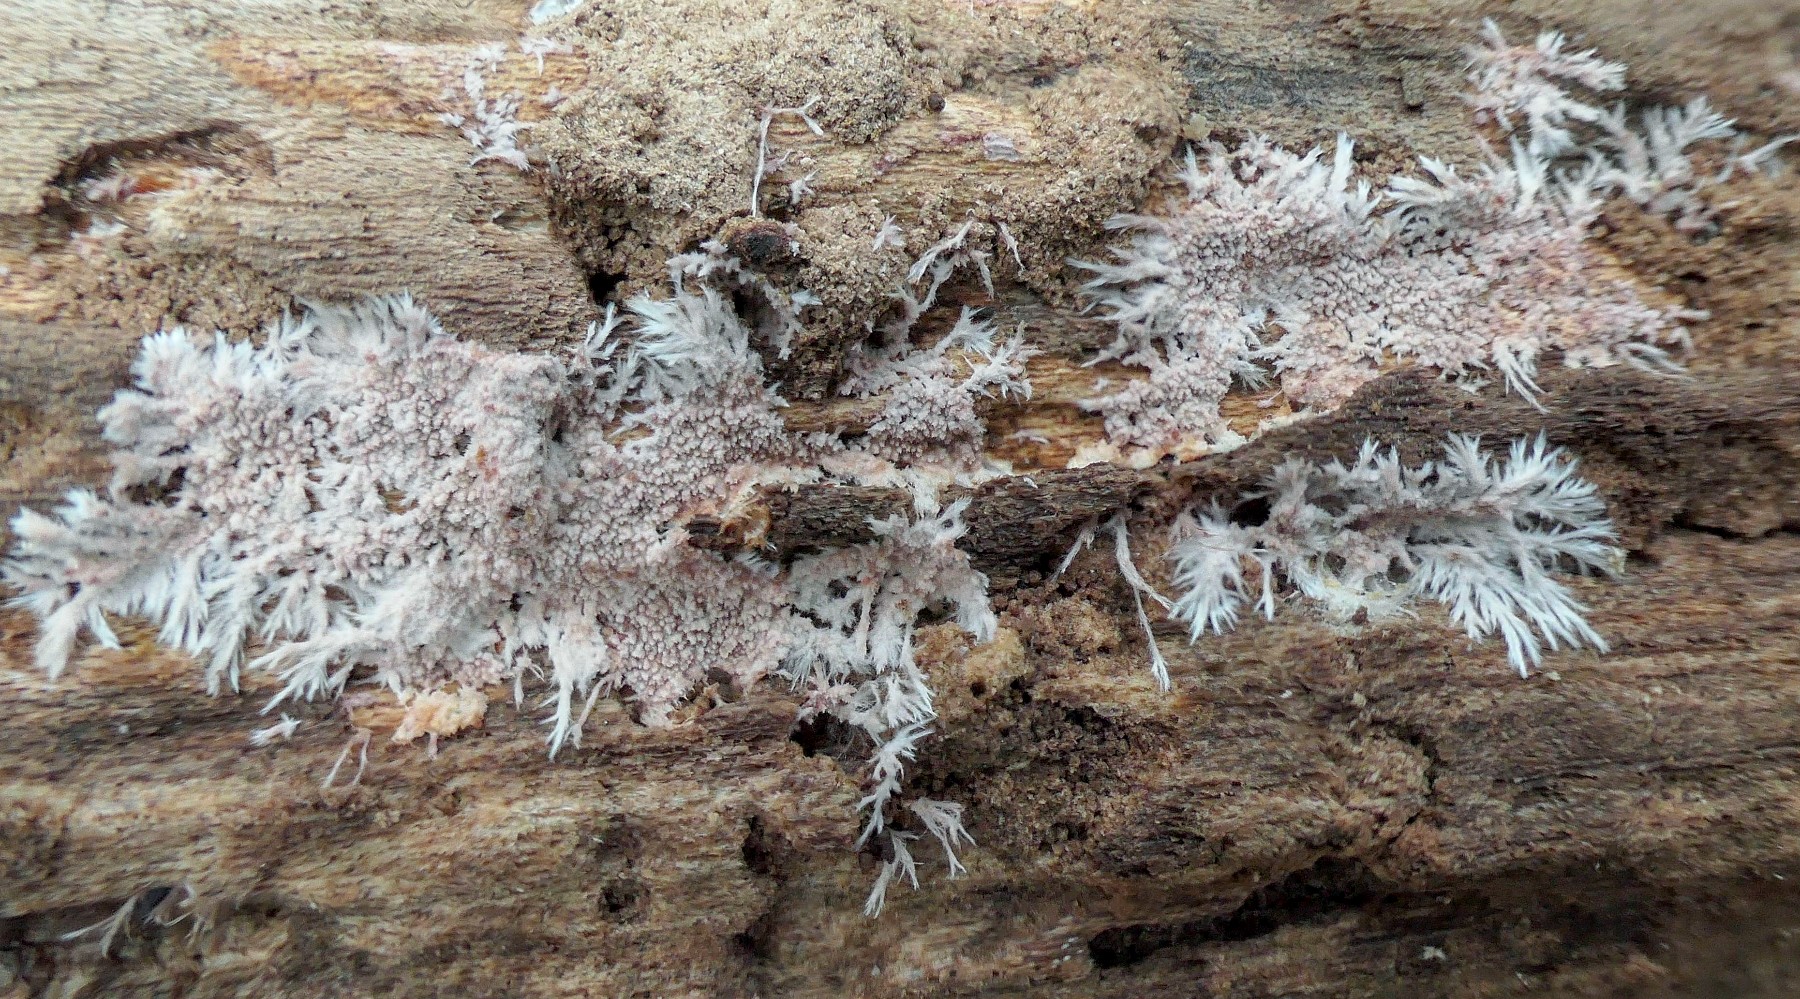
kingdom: Fungi
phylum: Basidiomycota
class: Agaricomycetes
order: Polyporales
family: Steccherinaceae
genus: Steccherinum
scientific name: Steccherinum fimbriatum
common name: trådet skønpig
